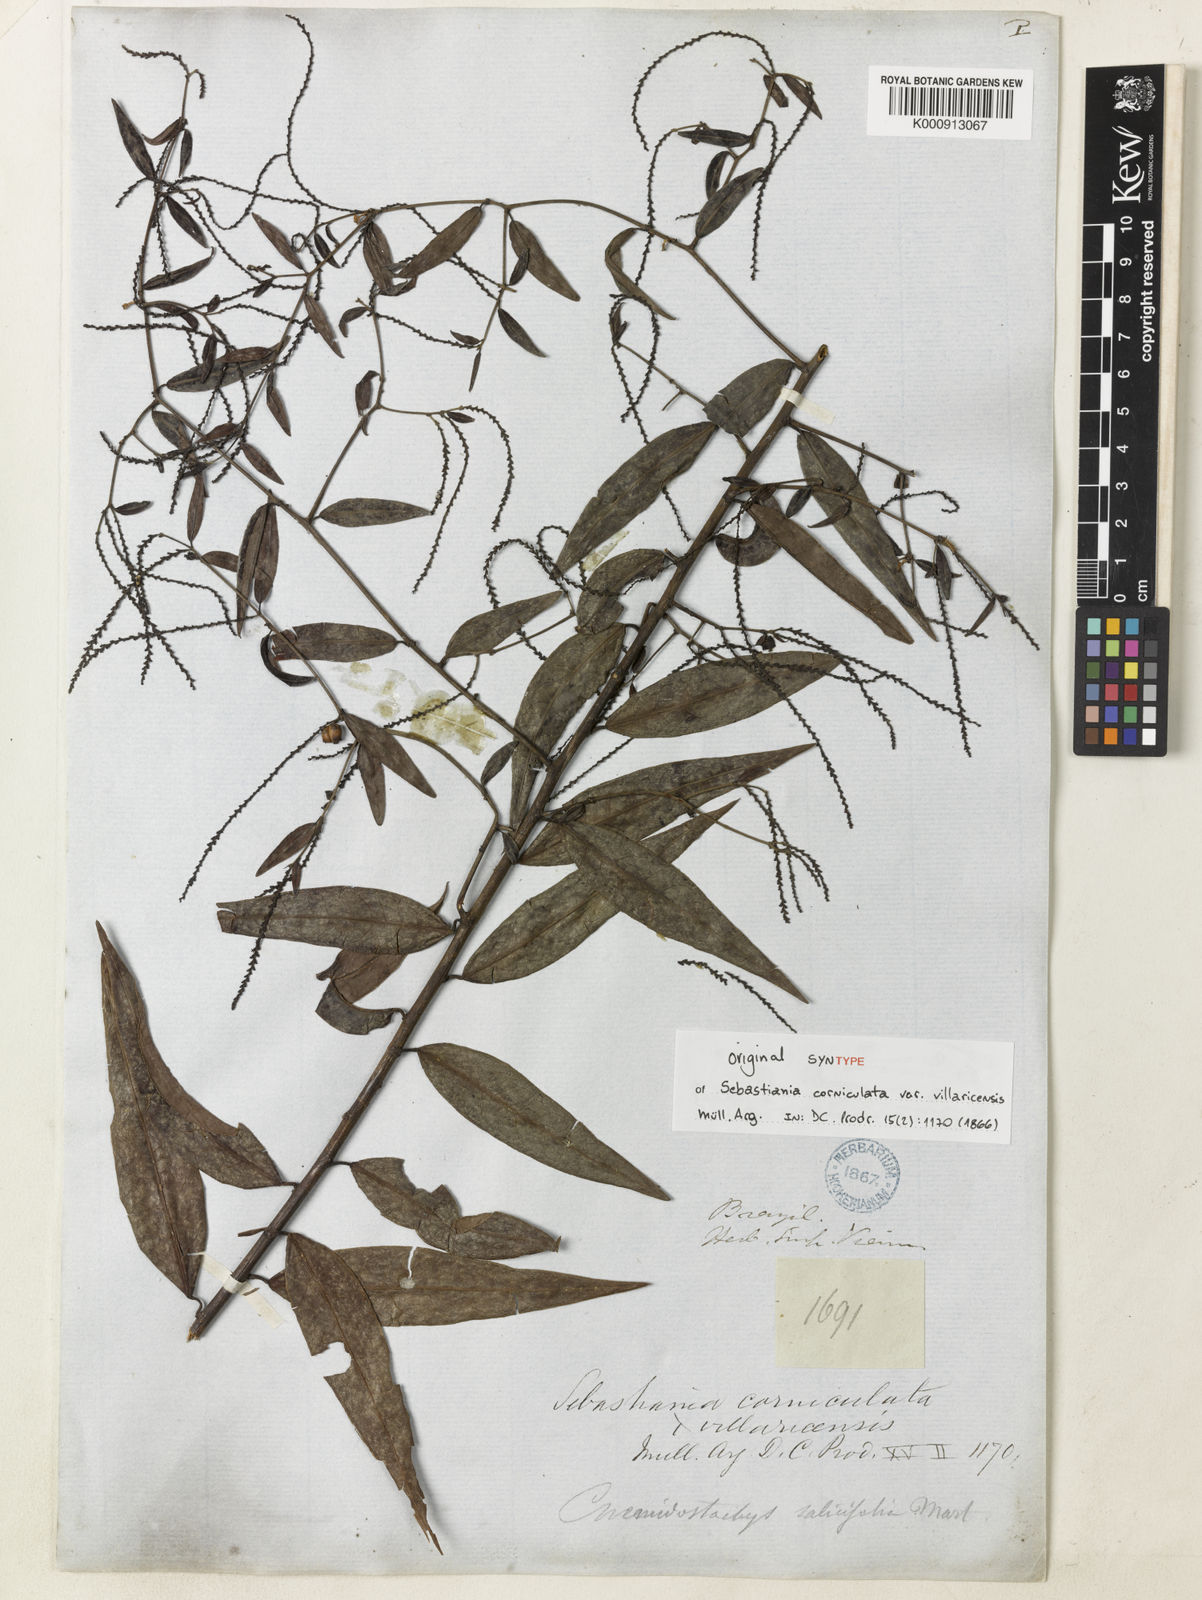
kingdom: Plantae
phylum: Tracheophyta
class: Magnoliopsida
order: Malpighiales
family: Euphorbiaceae
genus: Microstachys
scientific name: Microstachys corniculata
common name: Hato tejas
